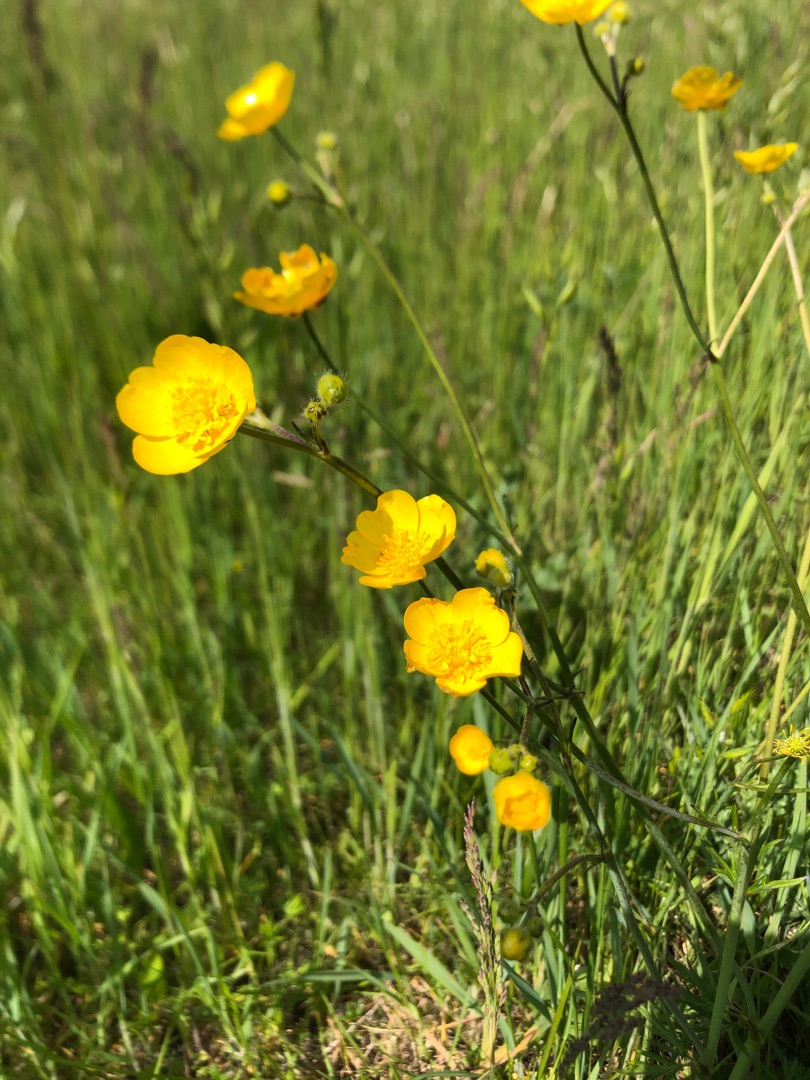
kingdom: Plantae
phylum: Tracheophyta
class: Magnoliopsida
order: Ranunculales
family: Ranunculaceae
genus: Ranunculus
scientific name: Ranunculus acris
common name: Bidende ranunkel
